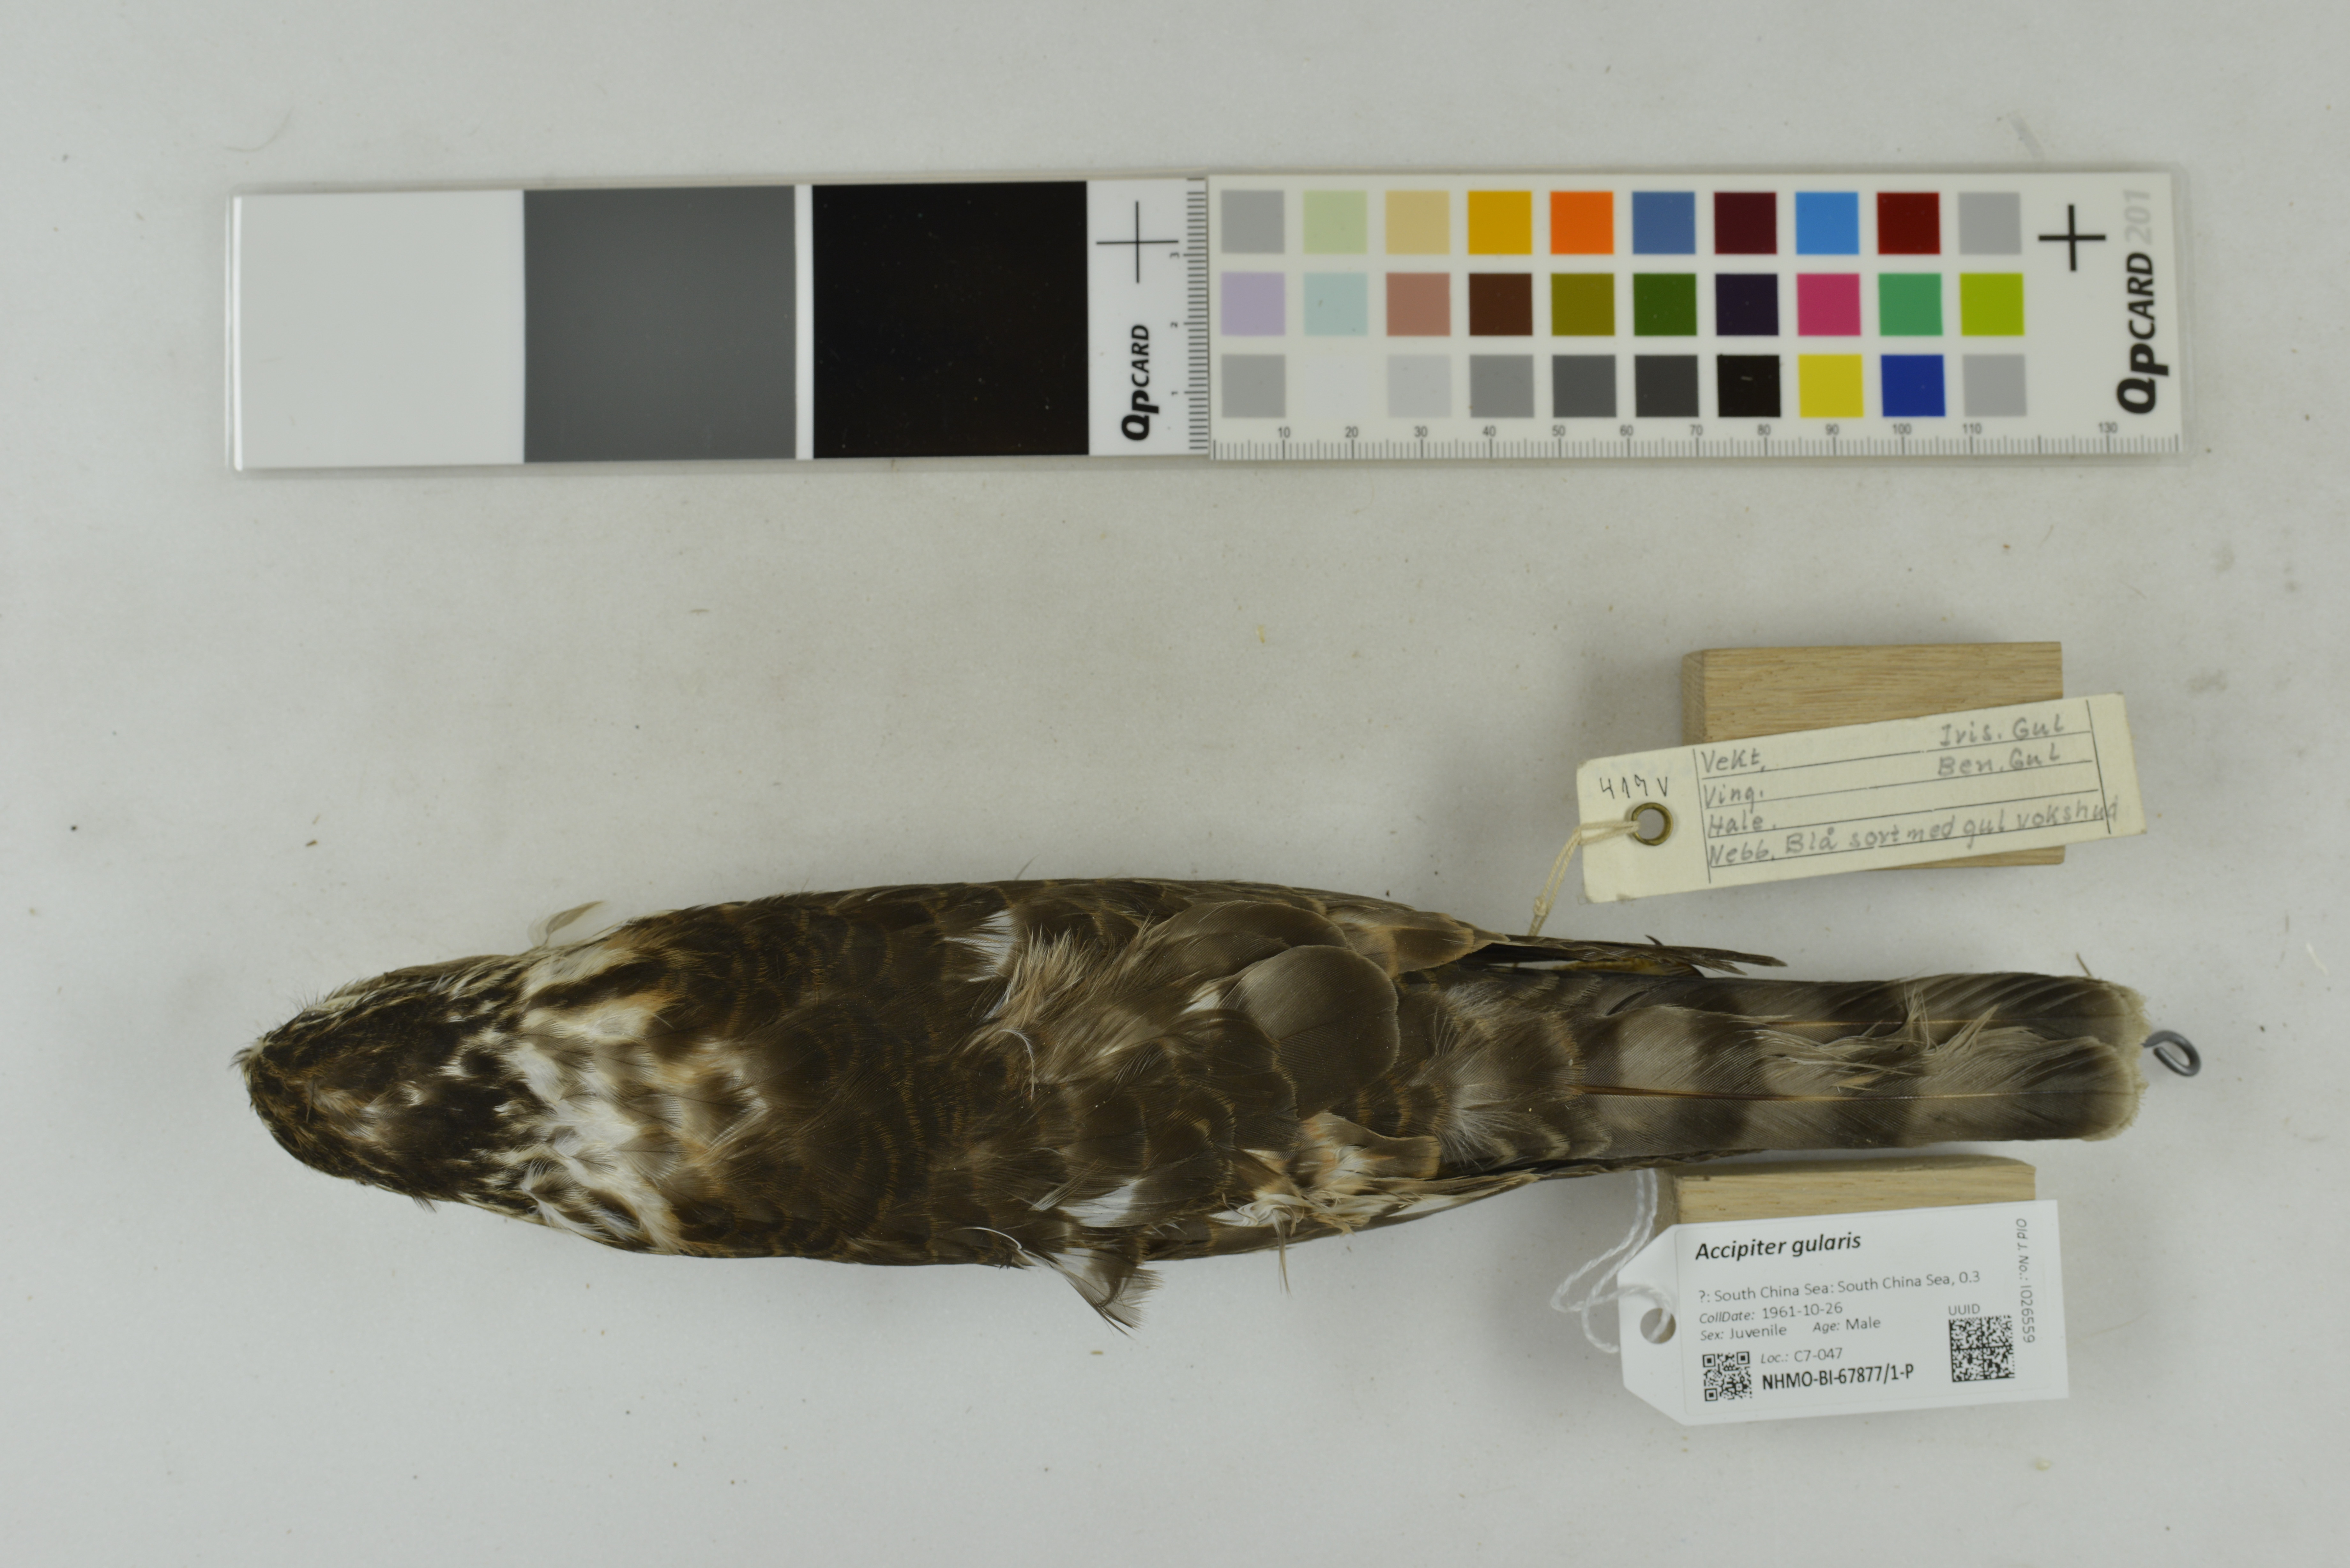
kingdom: Animalia
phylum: Chordata
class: Aves
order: Accipitriformes
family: Accipitridae
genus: Accipiter
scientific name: Accipiter gularis
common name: Japanese sparrowhawk
